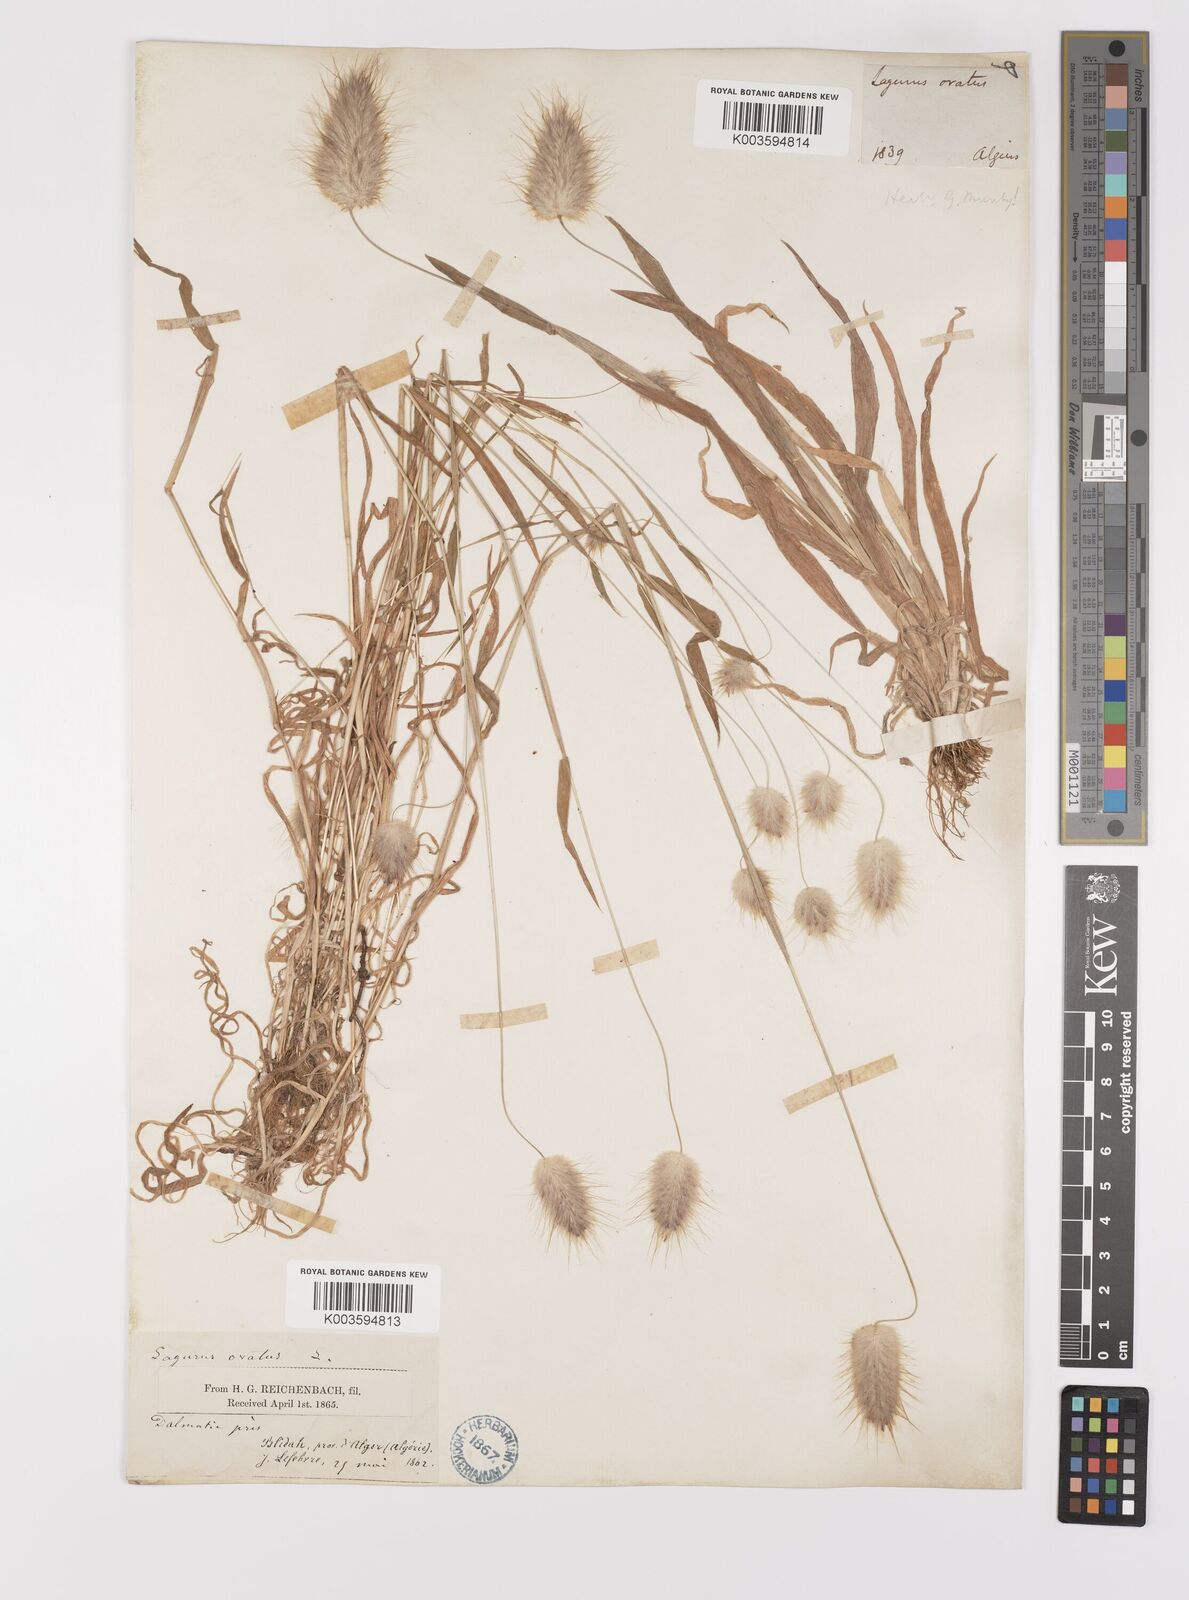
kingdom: Plantae
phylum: Tracheophyta
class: Liliopsida
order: Poales
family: Poaceae
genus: Lagurus
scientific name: Lagurus ovatus
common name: Hare's-tail
